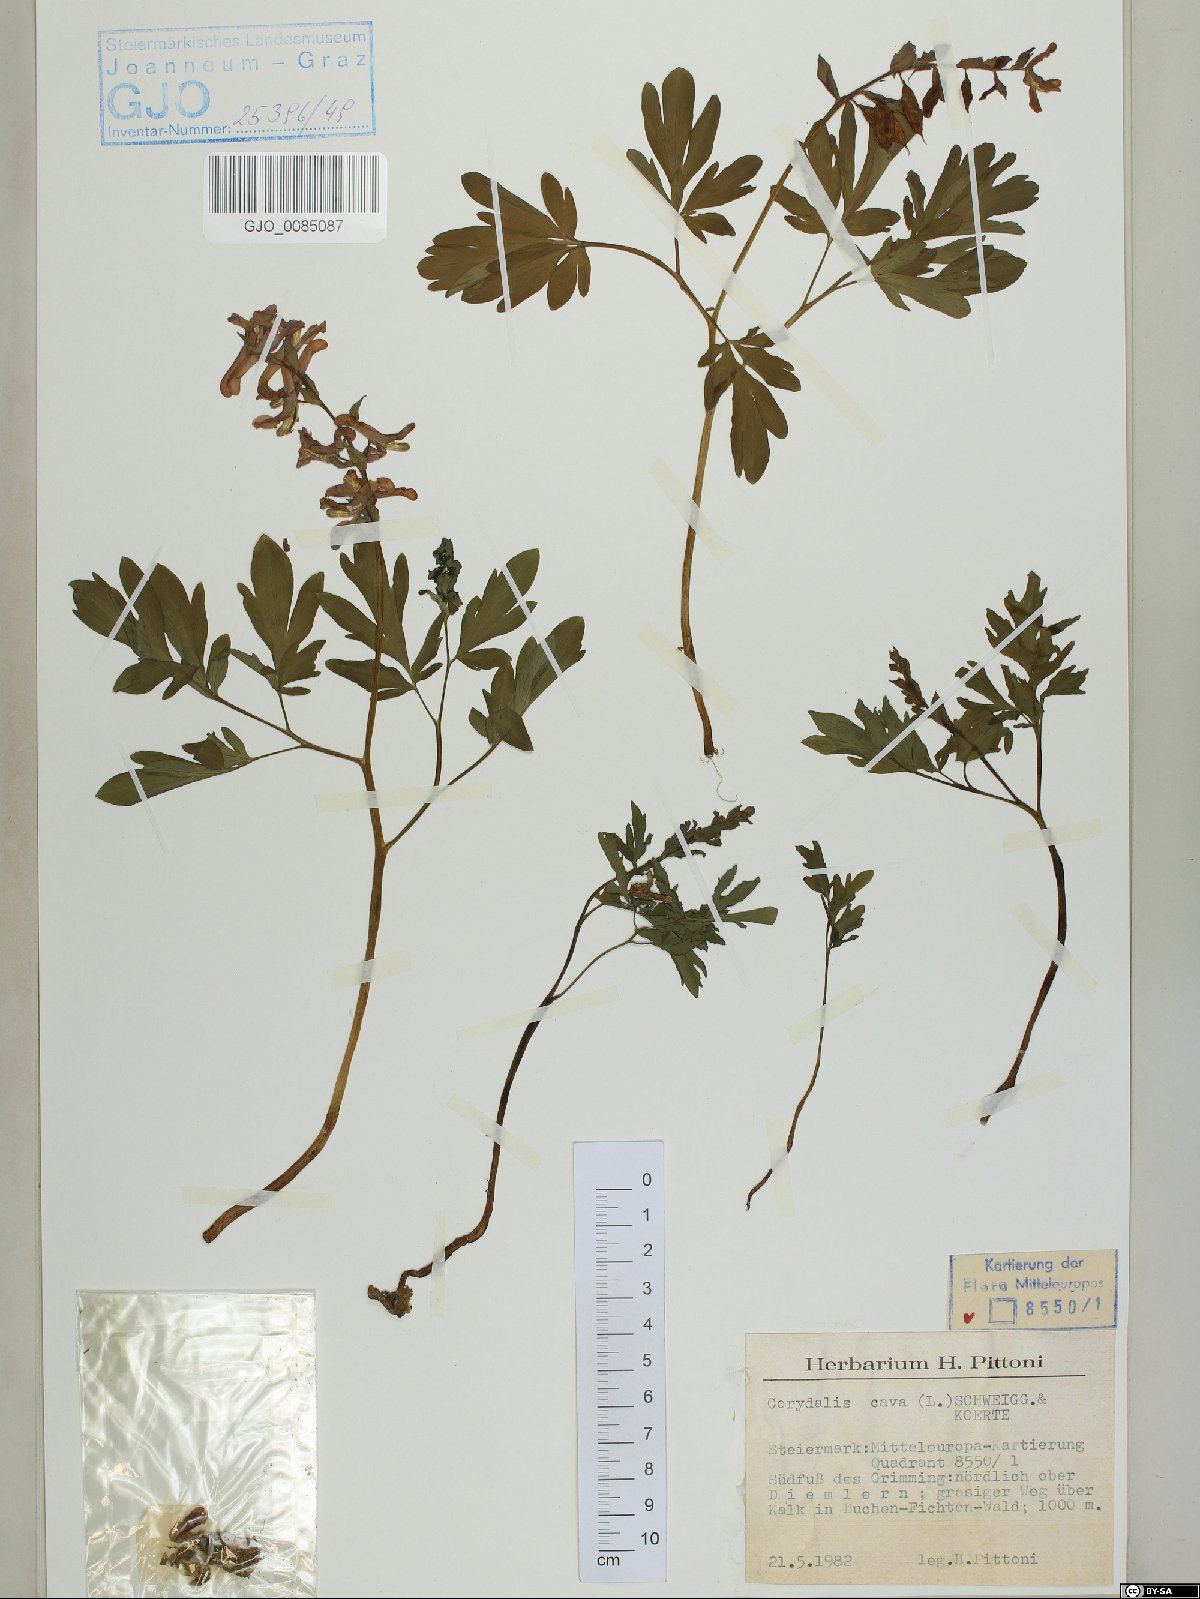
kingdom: Plantae
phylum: Tracheophyta
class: Magnoliopsida
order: Ranunculales
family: Papaveraceae
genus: Corydalis
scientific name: Corydalis cava
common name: Hollowroot
